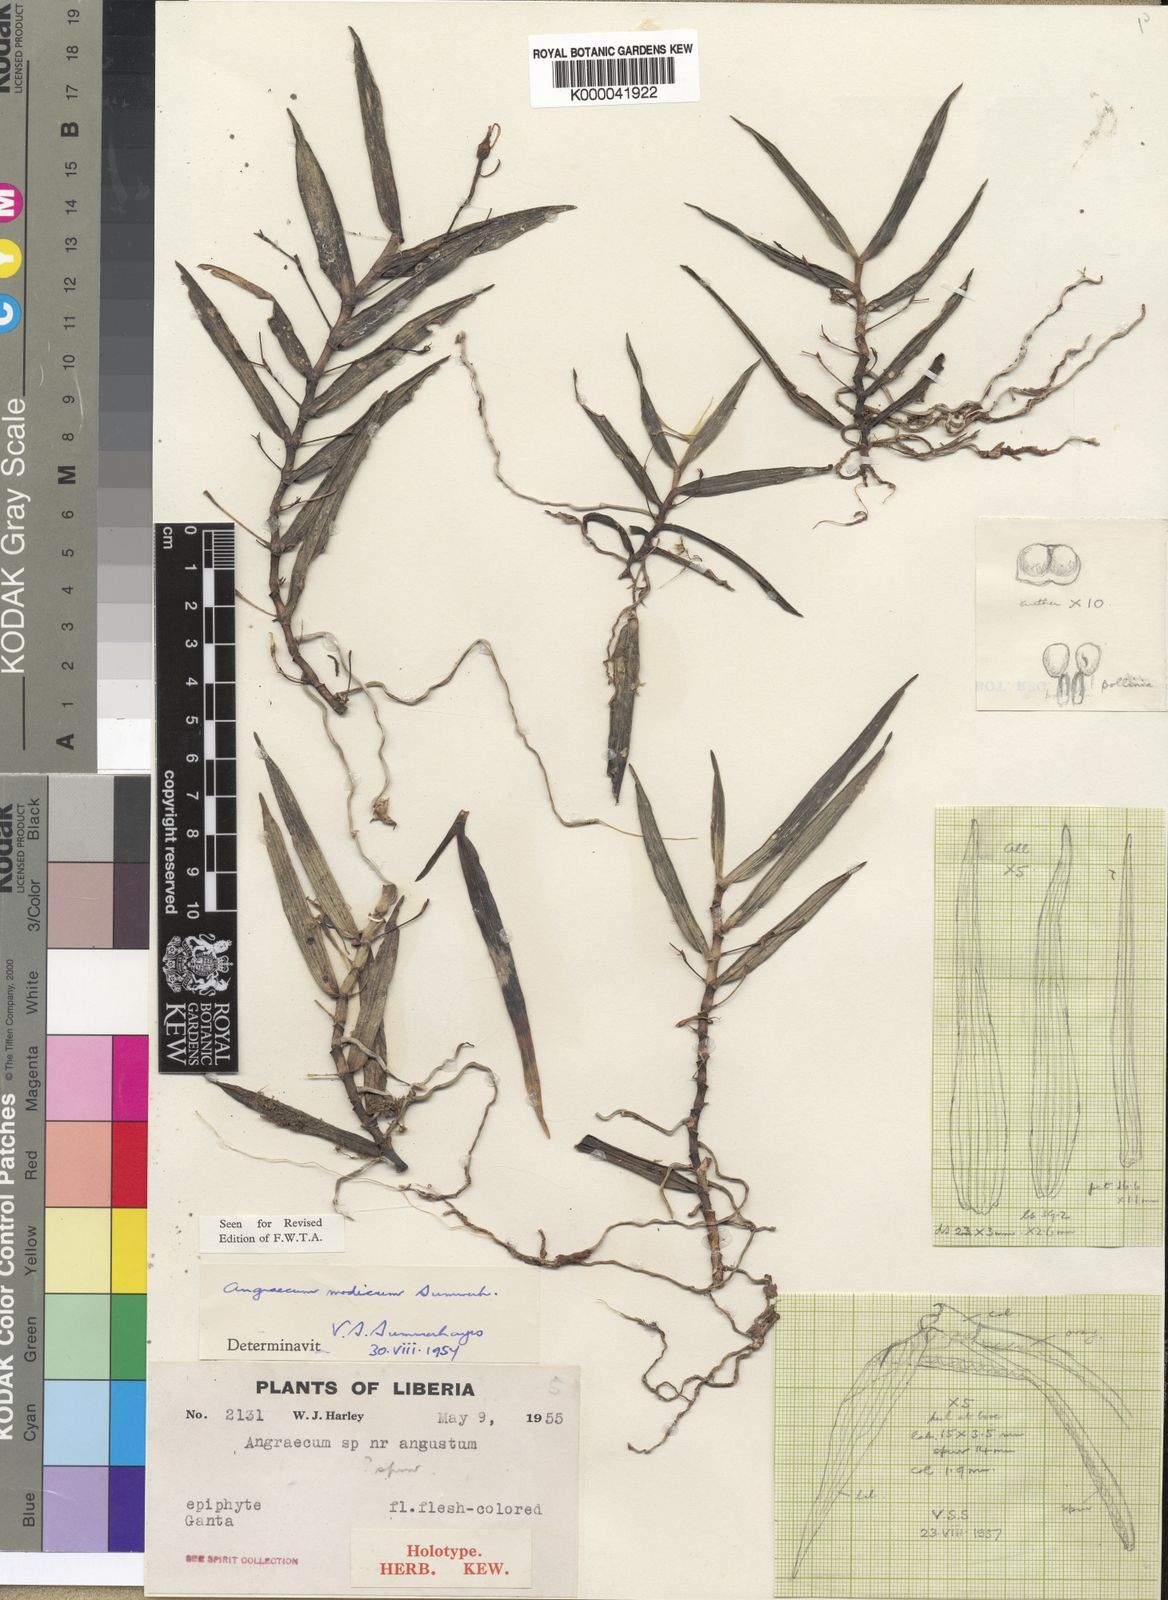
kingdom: Plantae
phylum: Tracheophyta
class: Liliopsida
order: Asparagales
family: Orchidaceae
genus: Angraecum
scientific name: Angraecum modicum
